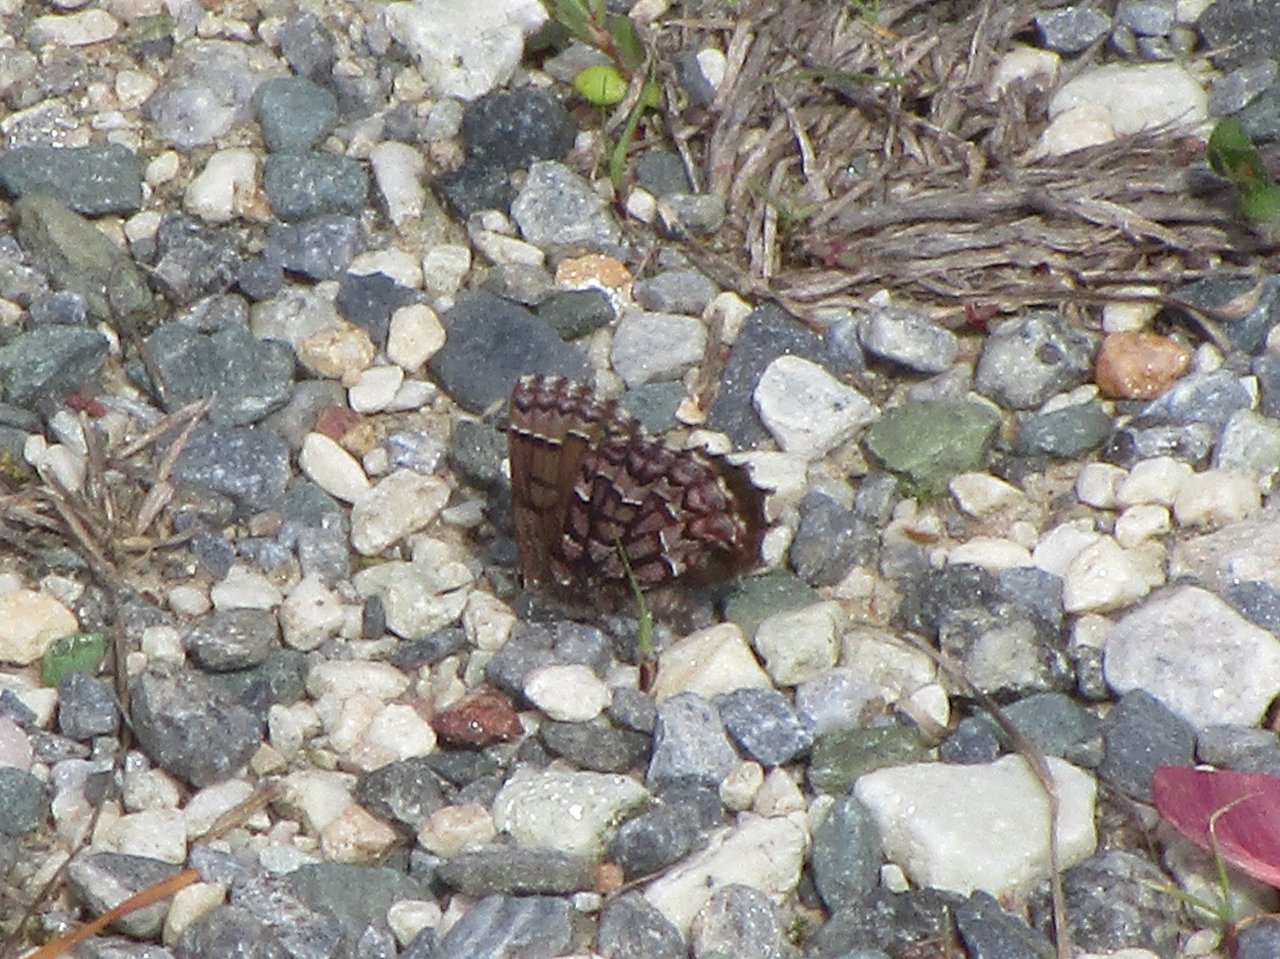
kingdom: Animalia
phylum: Arthropoda
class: Insecta
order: Lepidoptera
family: Lycaenidae
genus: Incisalia
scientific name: Incisalia niphon
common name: Eastern Pine Elfin
